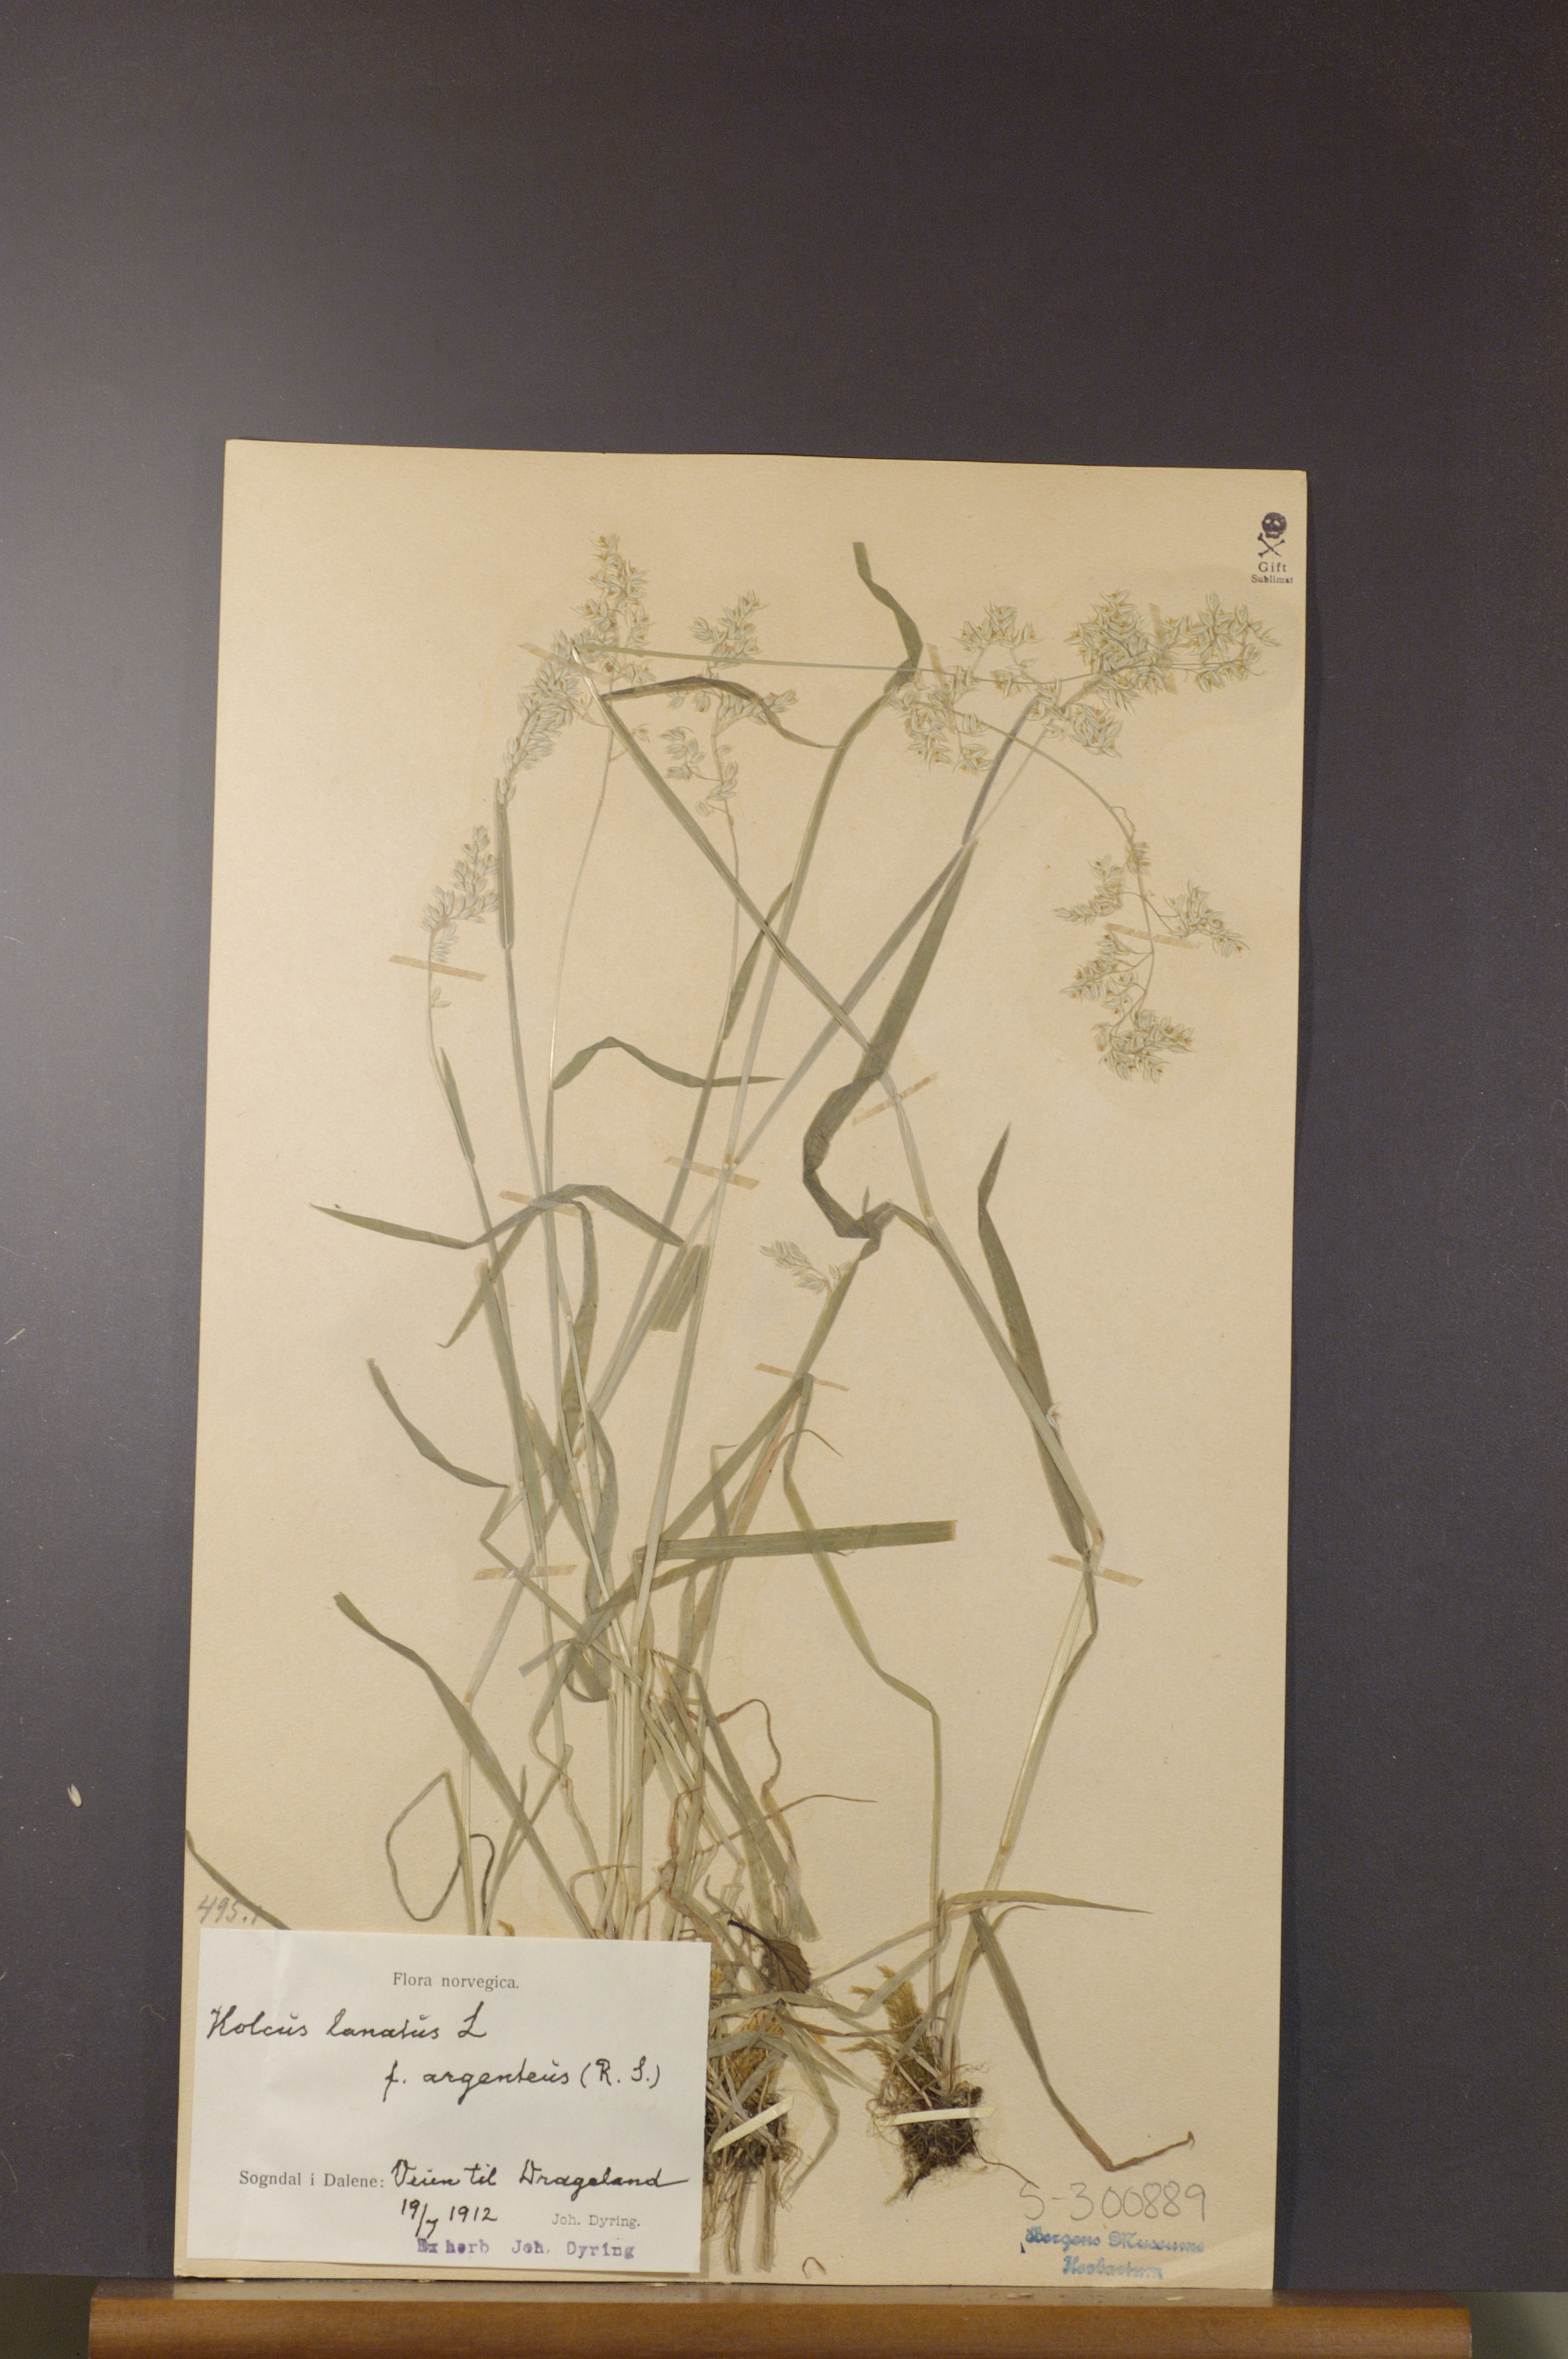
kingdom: Plantae
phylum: Tracheophyta
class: Liliopsida
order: Poales
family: Poaceae
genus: Holcus
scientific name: Holcus lanatus
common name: Yorkshire-fog
